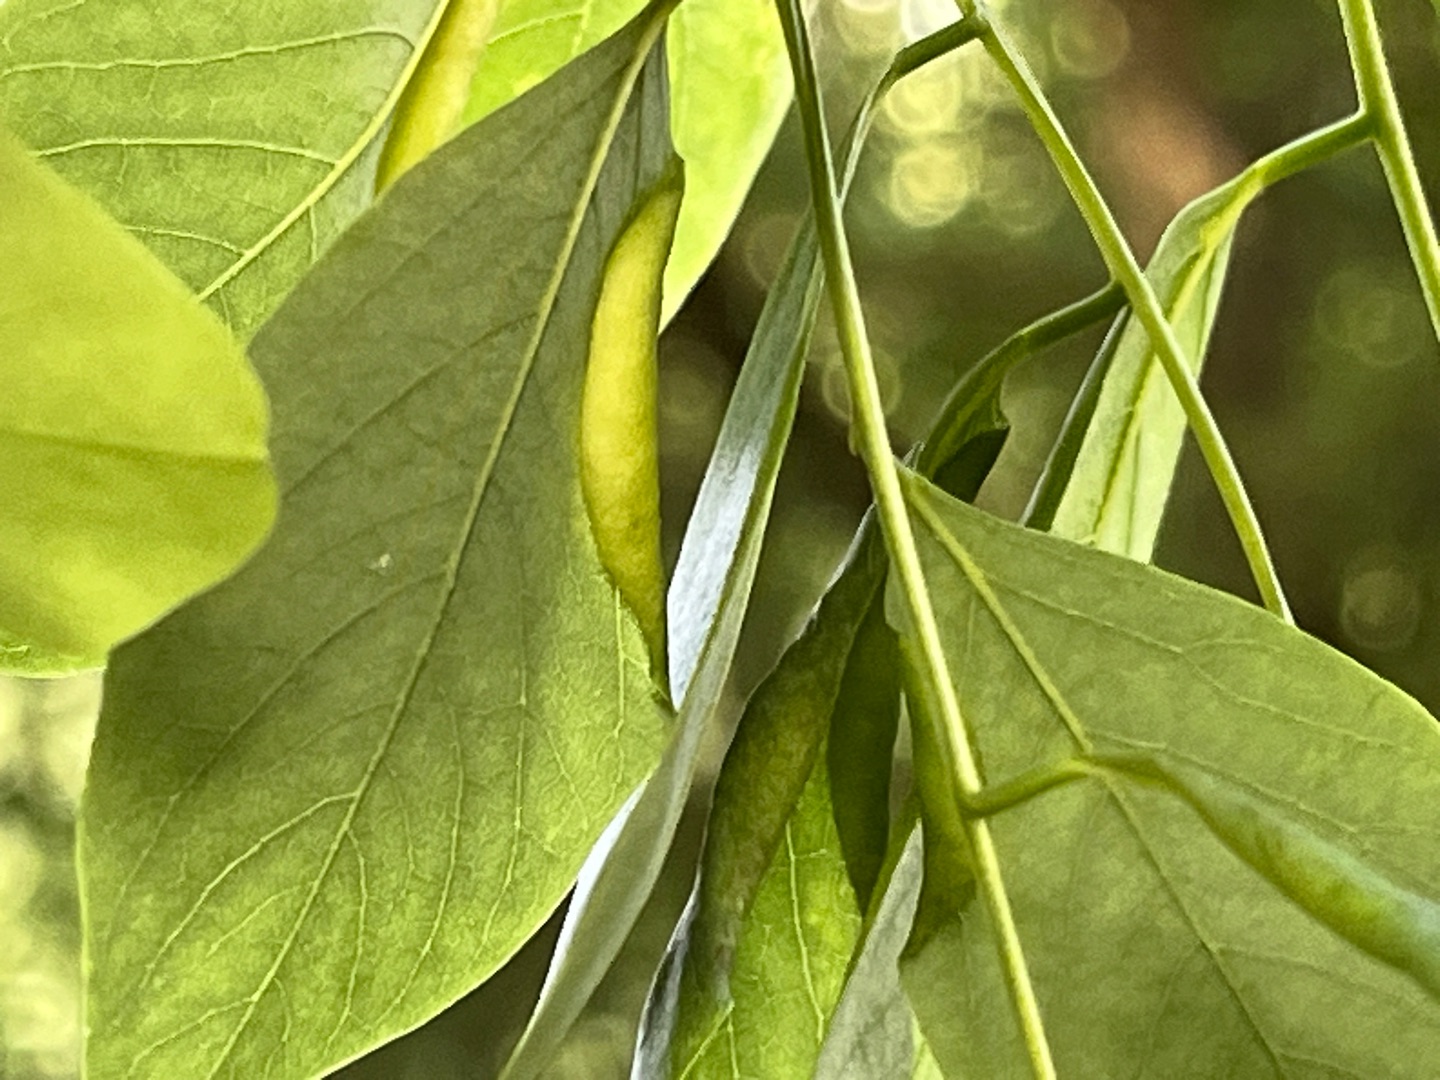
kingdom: Animalia
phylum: Arthropoda
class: Insecta
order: Diptera
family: Cecidomyiidae
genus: Obolodiplosis
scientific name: Obolodiplosis robiniae
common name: Robiniegalmyg
